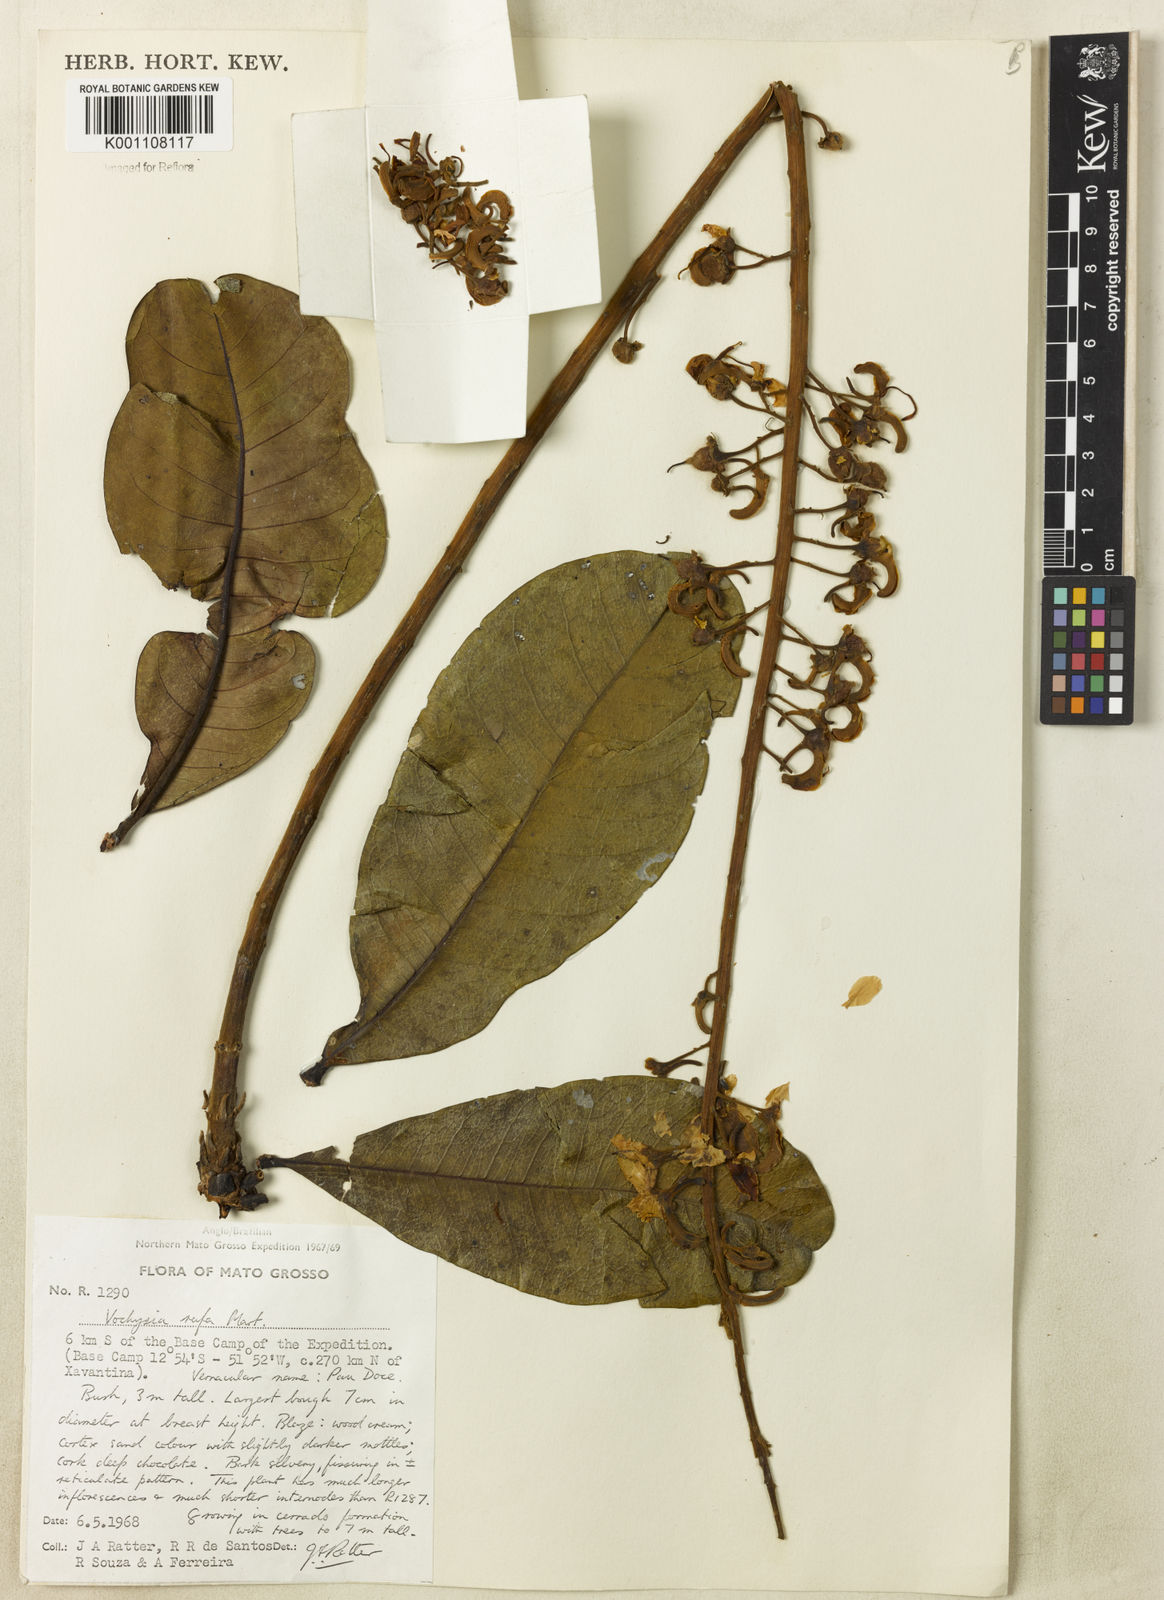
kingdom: Plantae
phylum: Tracheophyta
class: Magnoliopsida
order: Myrtales
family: Vochysiaceae
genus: Vochysia
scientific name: Vochysia rufa
